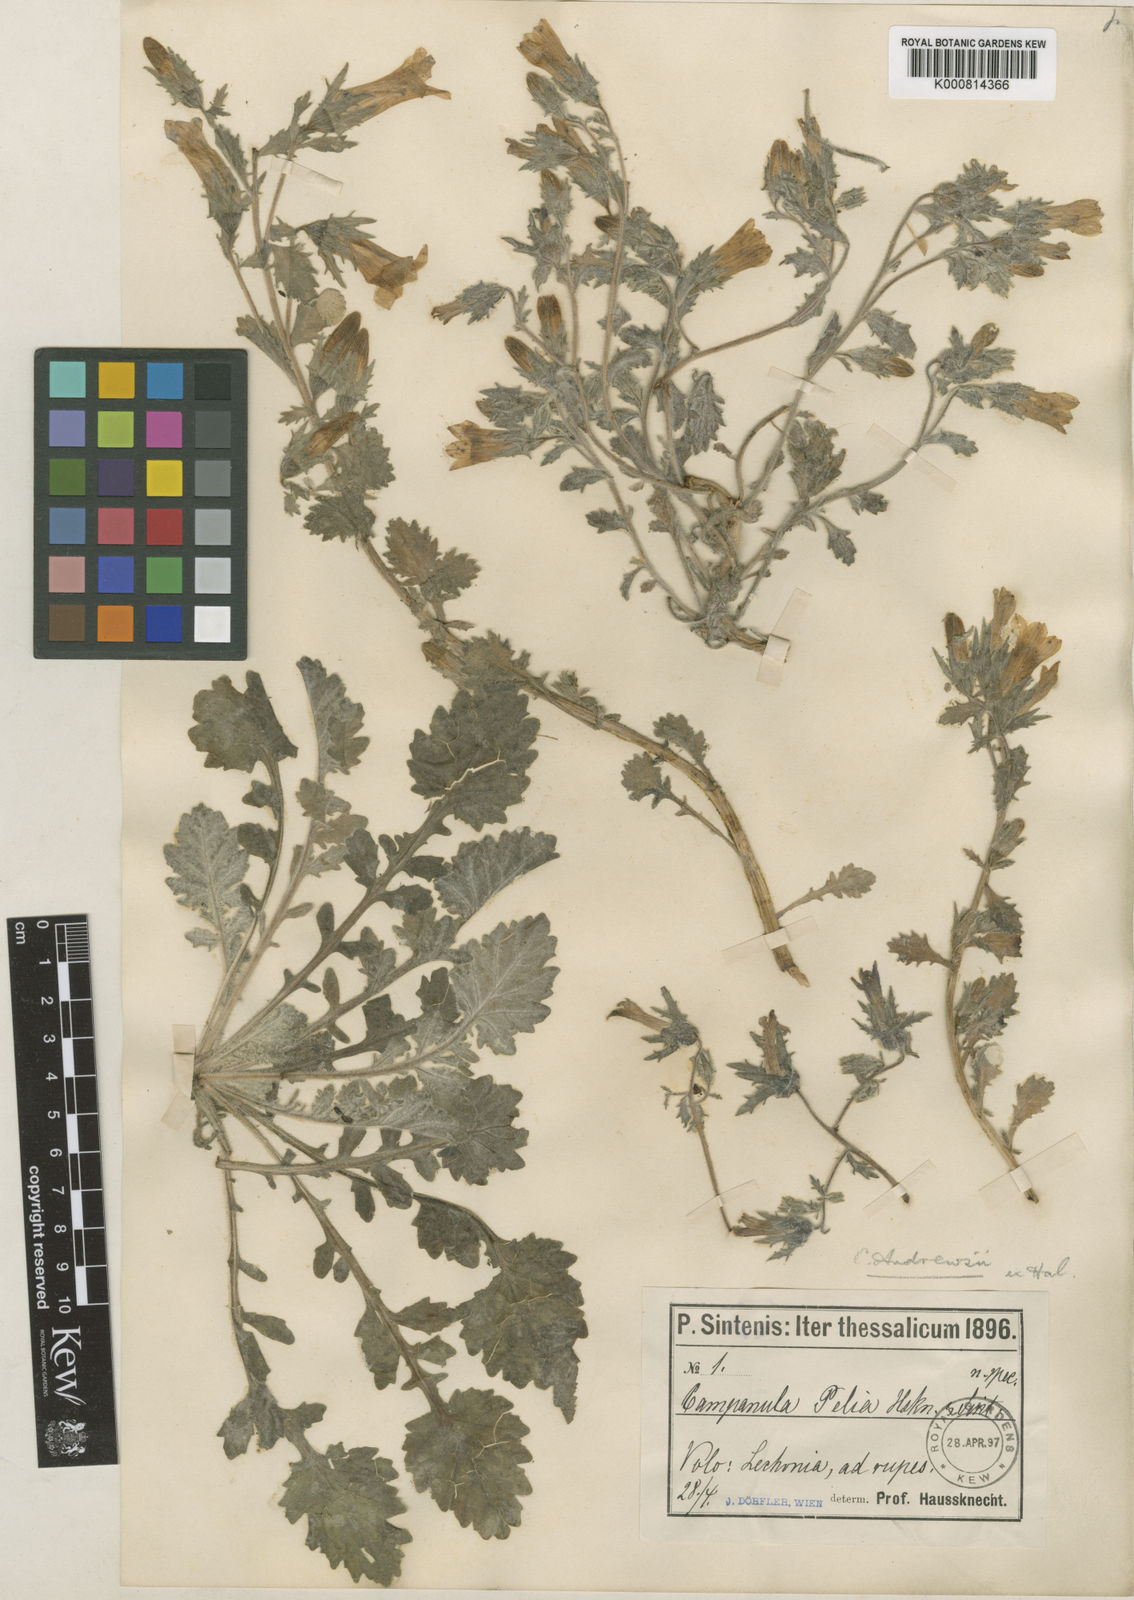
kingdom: Plantae
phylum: Tracheophyta
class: Magnoliopsida
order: Asterales
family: Campanulaceae
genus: Campanula
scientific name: Campanula andrewsii
